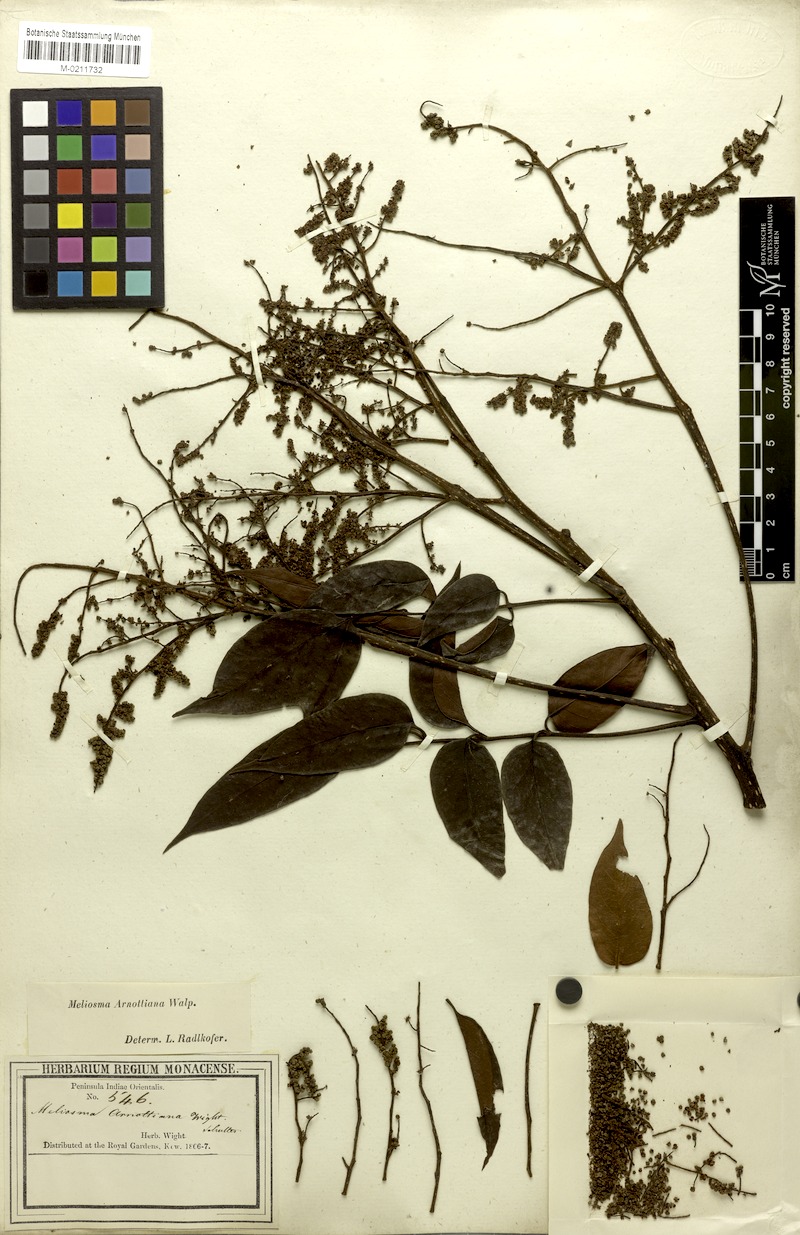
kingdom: Plantae
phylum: Tracheophyta
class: Magnoliopsida
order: Proteales
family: Sabiaceae
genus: Meliosma
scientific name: Meliosma arnottiana
